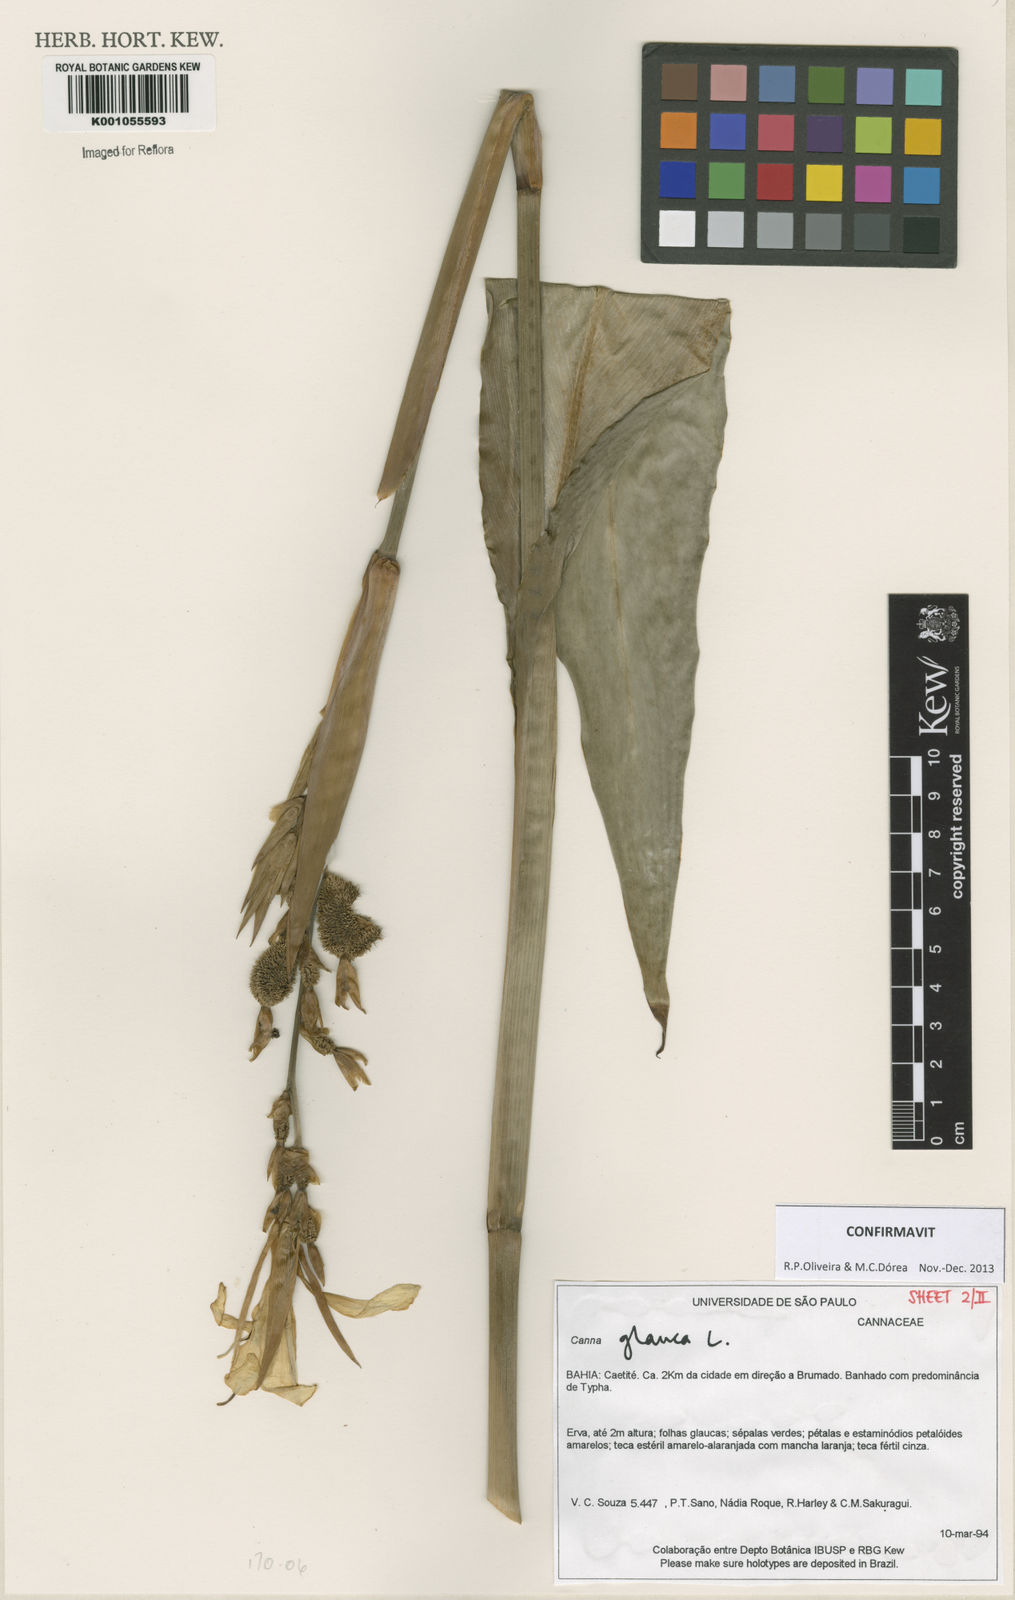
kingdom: Plantae
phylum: Tracheophyta
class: Liliopsida
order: Zingiberales
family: Cannaceae
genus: Canna
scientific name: Canna glauca
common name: Louisiana canna
